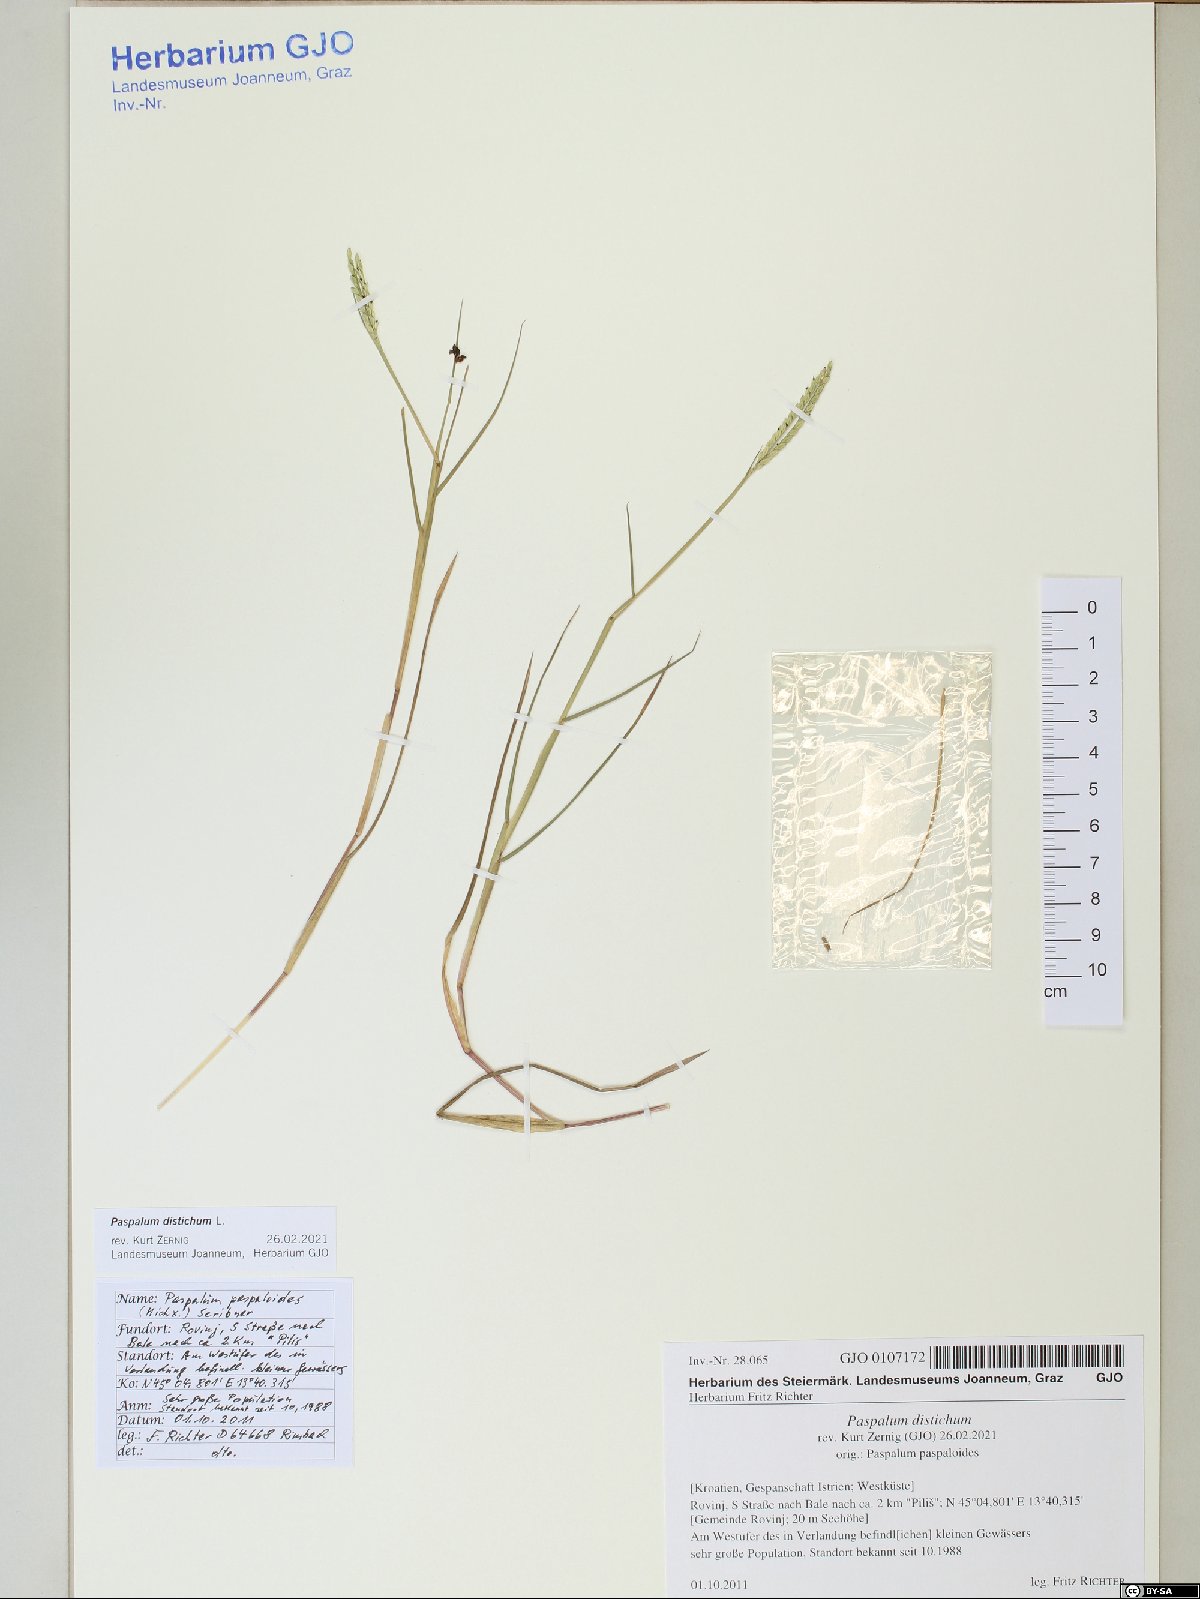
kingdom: Plantae
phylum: Tracheophyta
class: Liliopsida
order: Poales
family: Poaceae
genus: Paspalum
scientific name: Paspalum distichum
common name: Knotgrass
